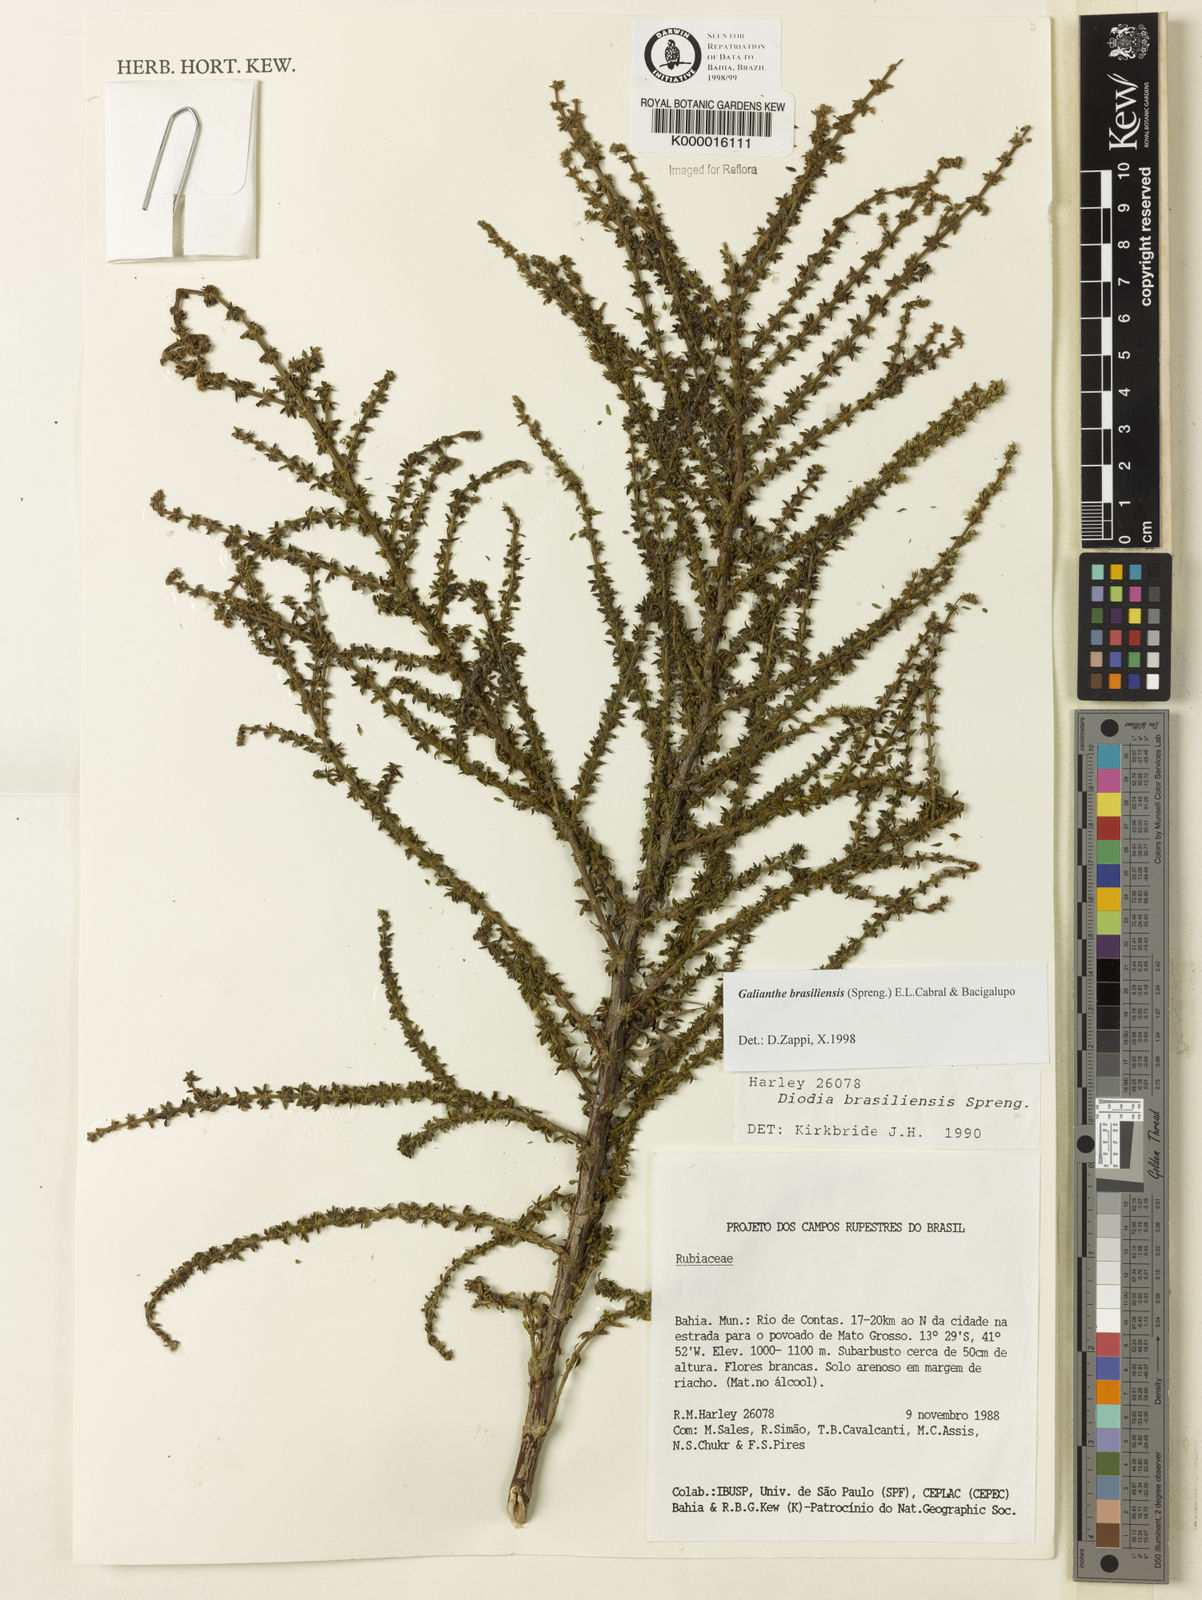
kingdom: Plantae
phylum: Tracheophyta
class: Magnoliopsida
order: Gentianales
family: Rubiaceae
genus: Galianthe
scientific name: Galianthe brasiliensis
